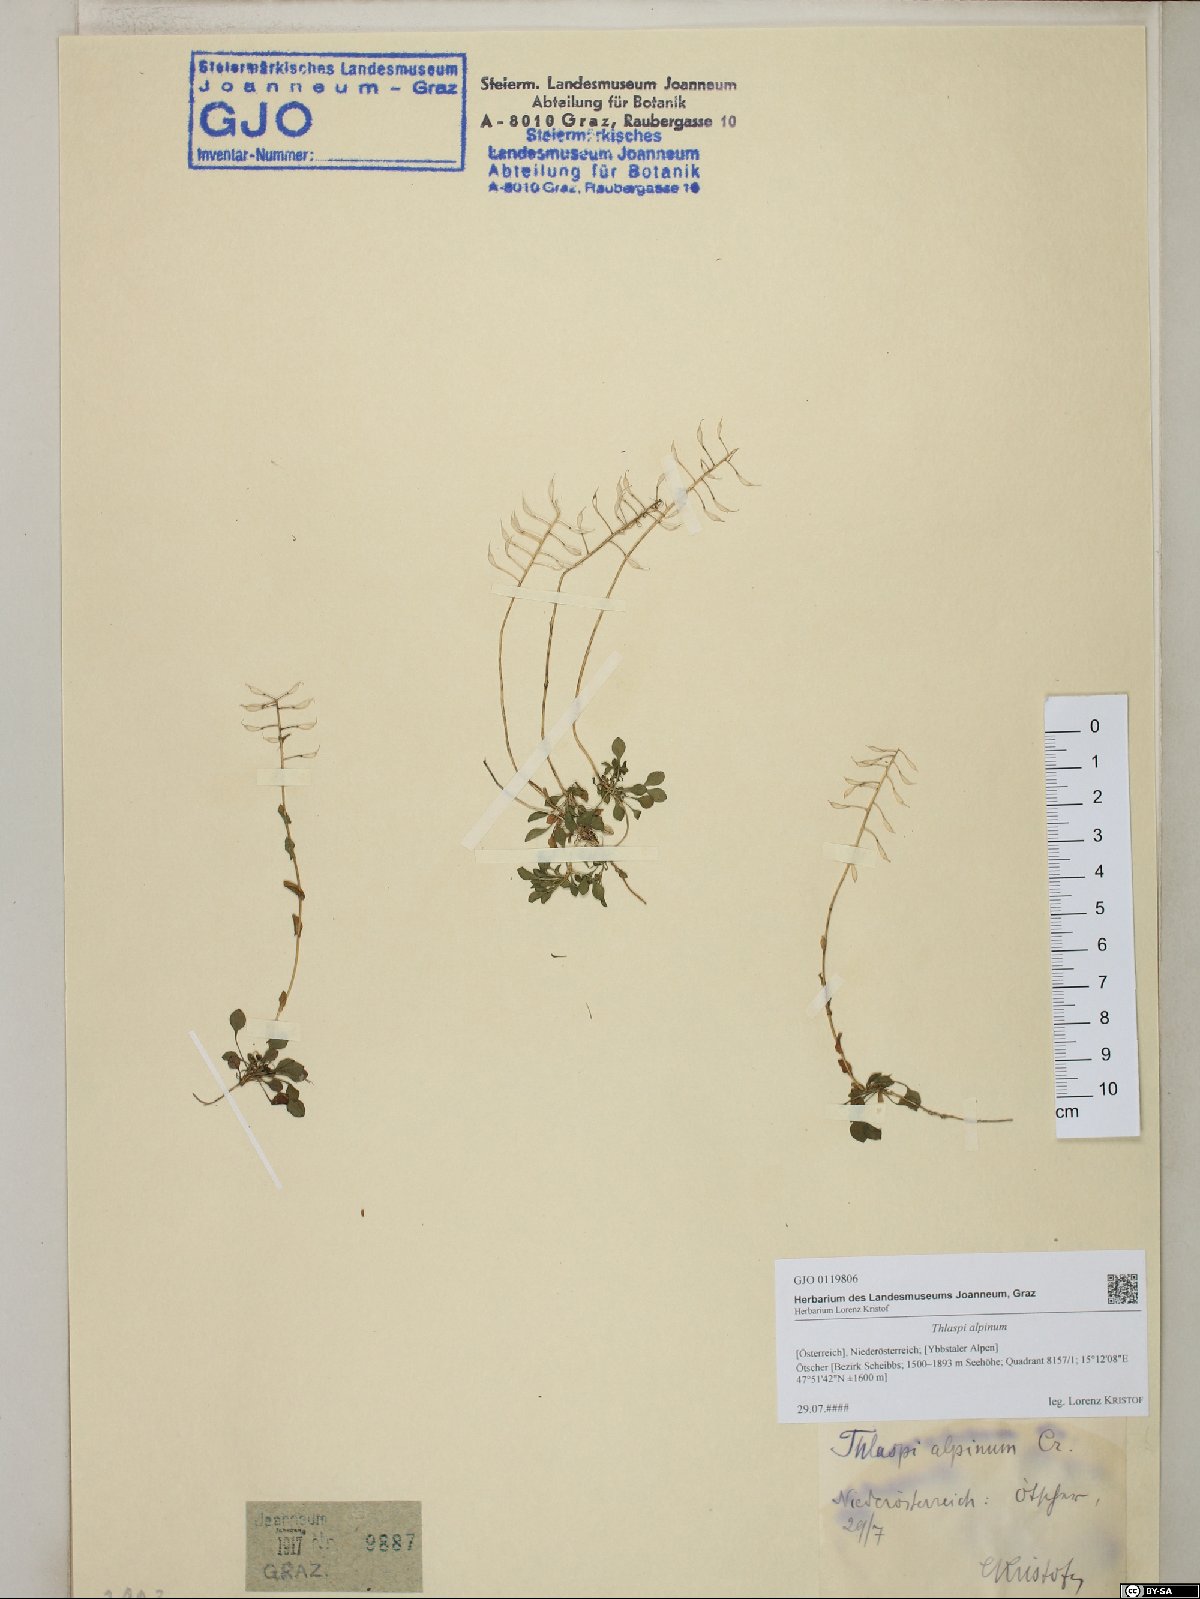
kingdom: Plantae
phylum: Tracheophyta
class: Magnoliopsida
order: Brassicales
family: Brassicaceae
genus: Noccaea
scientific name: Noccaea alpestris
